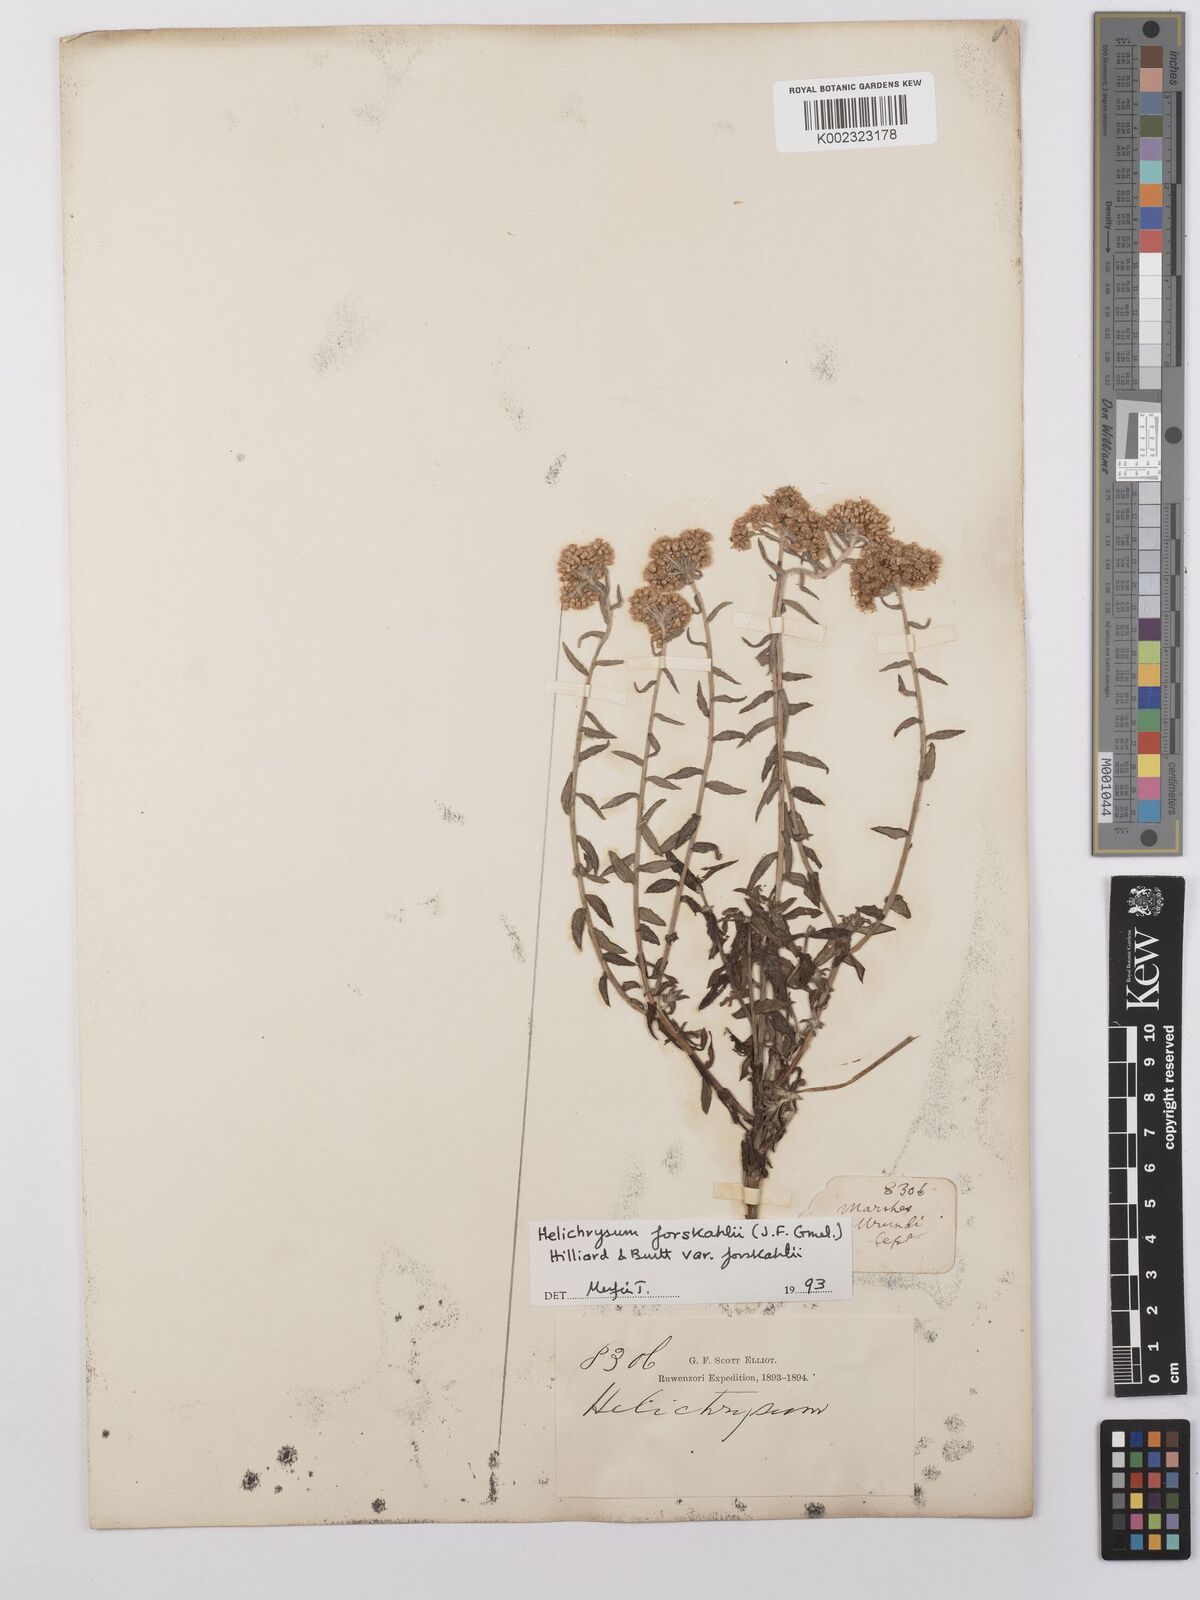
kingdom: Plantae
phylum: Tracheophyta
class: Magnoliopsida
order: Asterales
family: Asteraceae
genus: Helichrysum
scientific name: Helichrysum forskahlii
